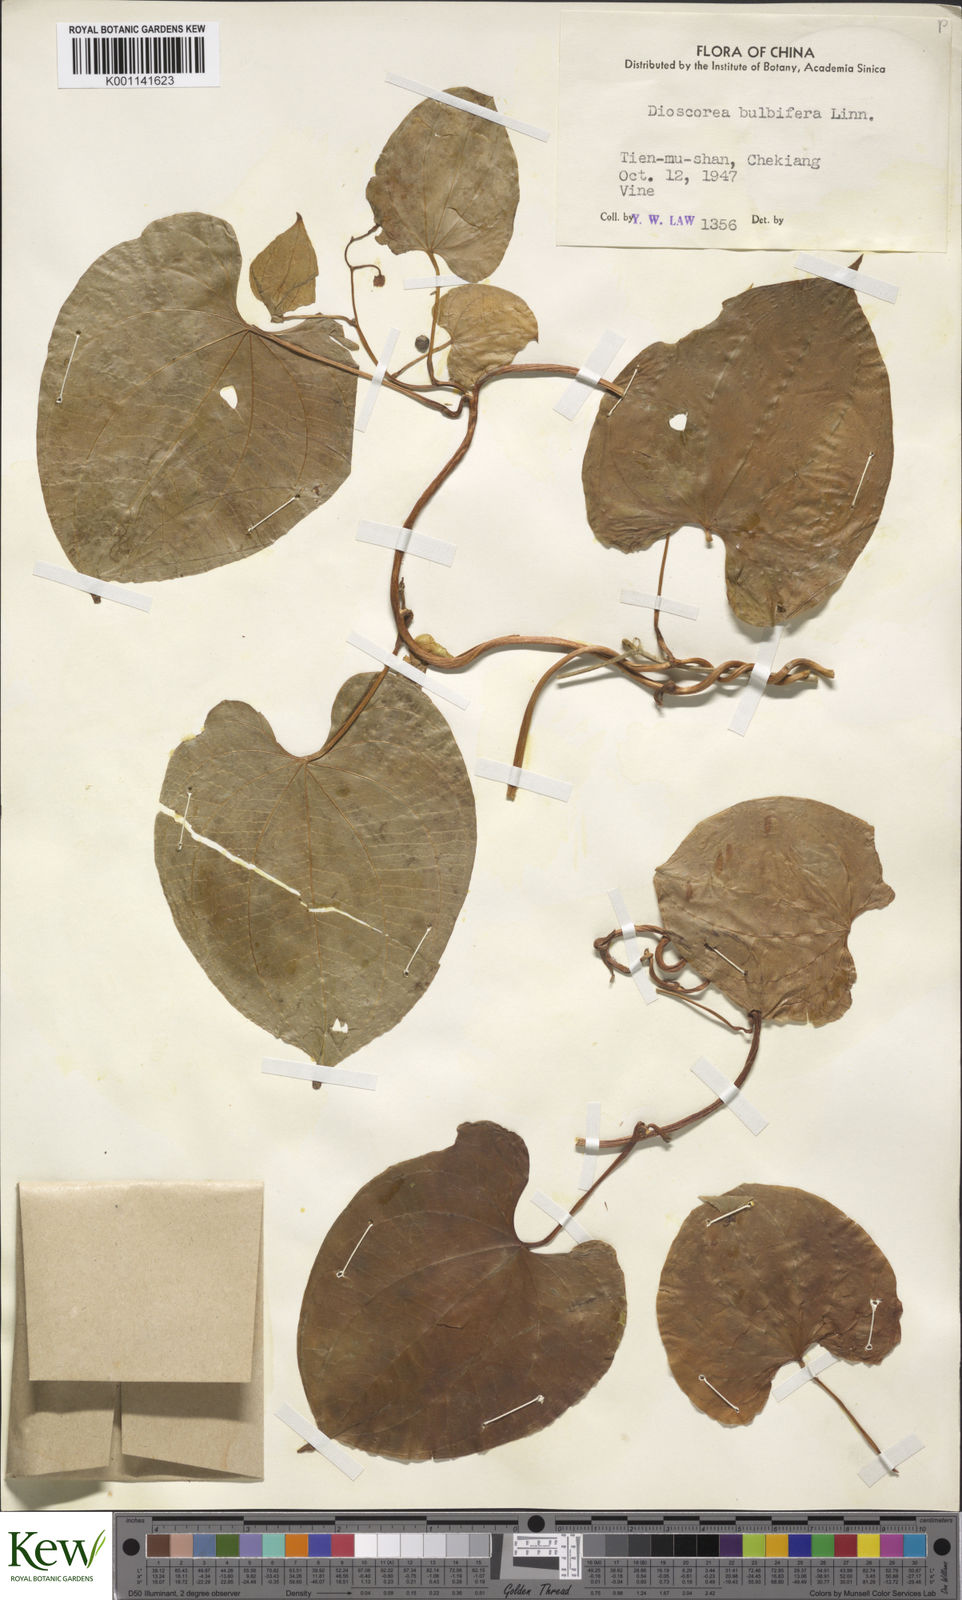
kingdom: Plantae
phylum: Tracheophyta
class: Liliopsida
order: Dioscoreales
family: Dioscoreaceae
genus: Dioscorea
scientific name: Dioscorea bulbifera
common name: Air yam
